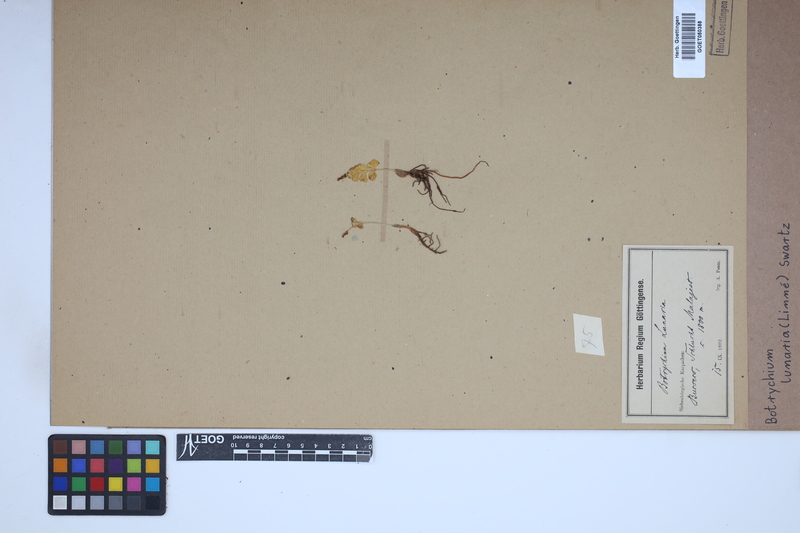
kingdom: Plantae
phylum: Tracheophyta
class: Polypodiopsida
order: Ophioglossales
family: Ophioglossaceae
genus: Botrychium
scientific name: Botrychium lunaria
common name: Moonwort
